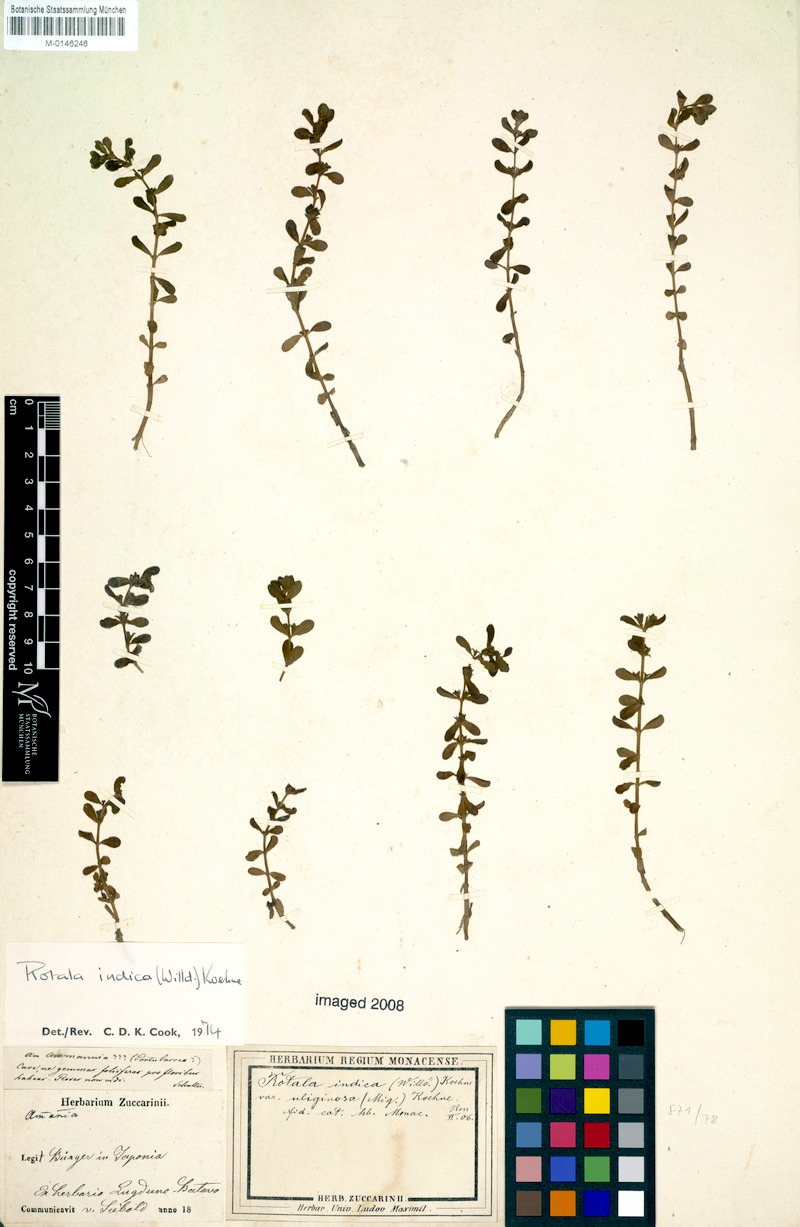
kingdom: Plantae
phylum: Tracheophyta
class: Magnoliopsida
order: Myrtales
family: Lythraceae
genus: Rotala
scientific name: Rotala indica
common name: Indian toothcup
